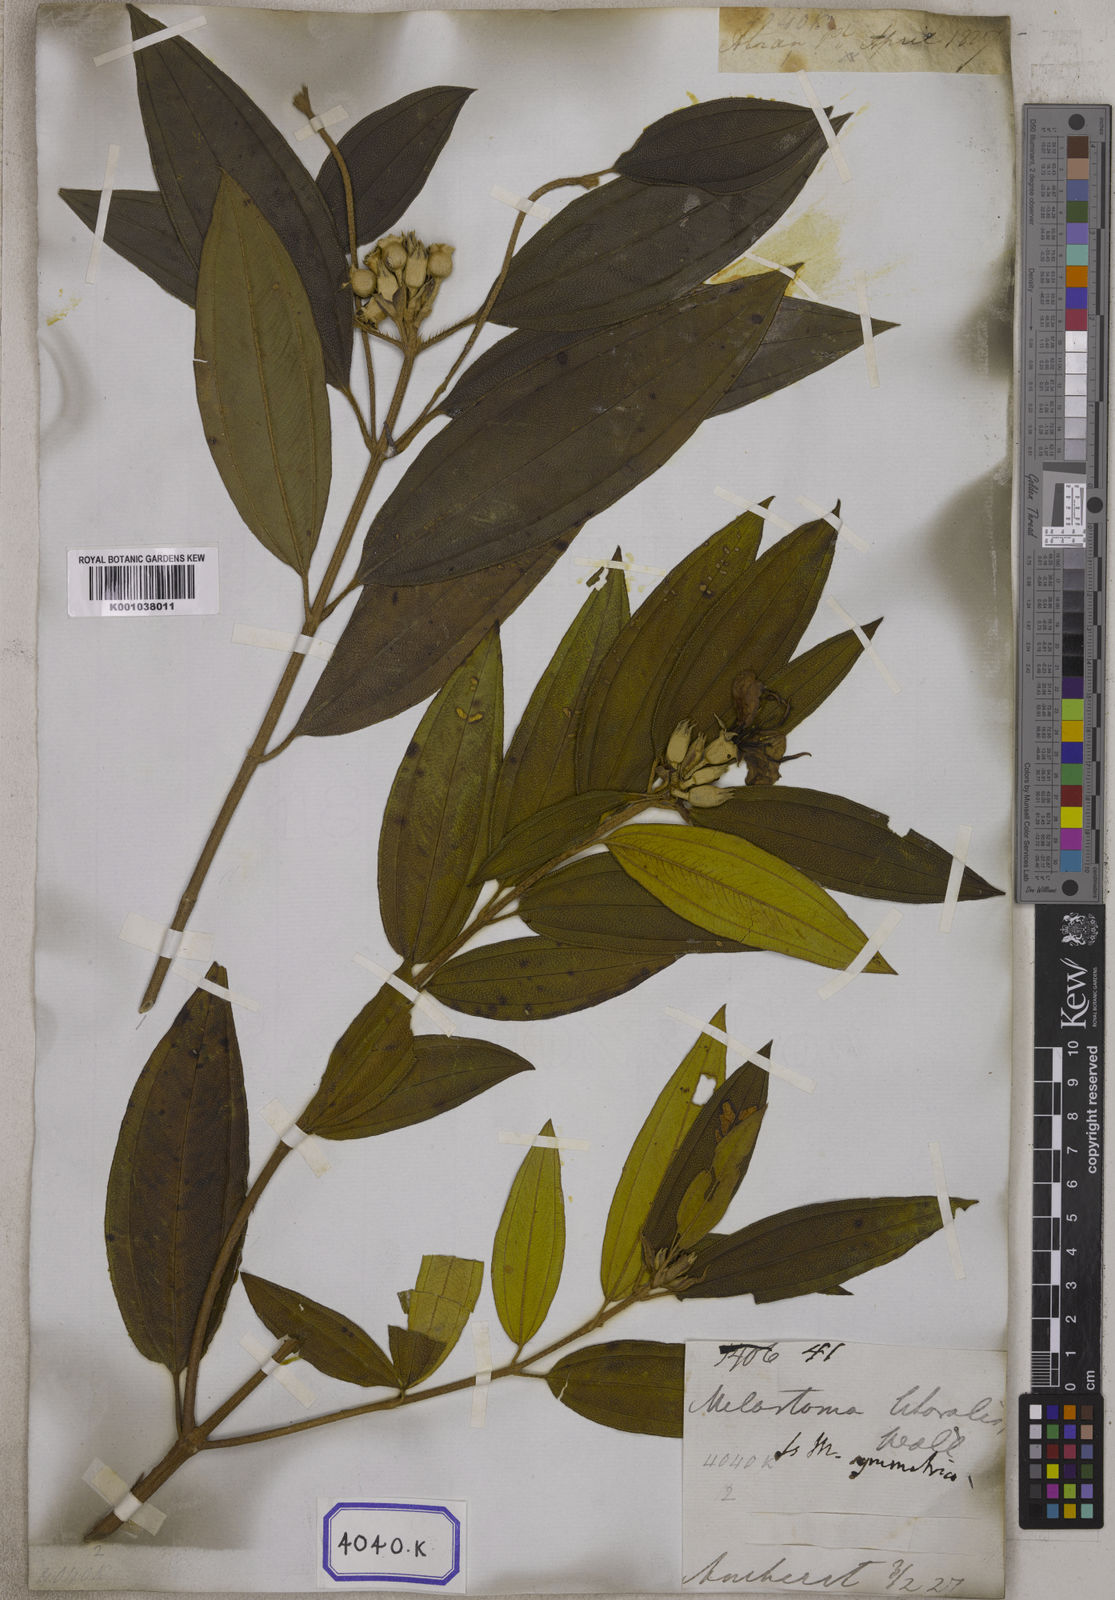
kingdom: Plantae
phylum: Tracheophyta
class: Magnoliopsida
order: Myrtales
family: Melastomataceae
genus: Melastoma
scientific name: Melastoma malabathricum
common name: Indian-rhododendron
